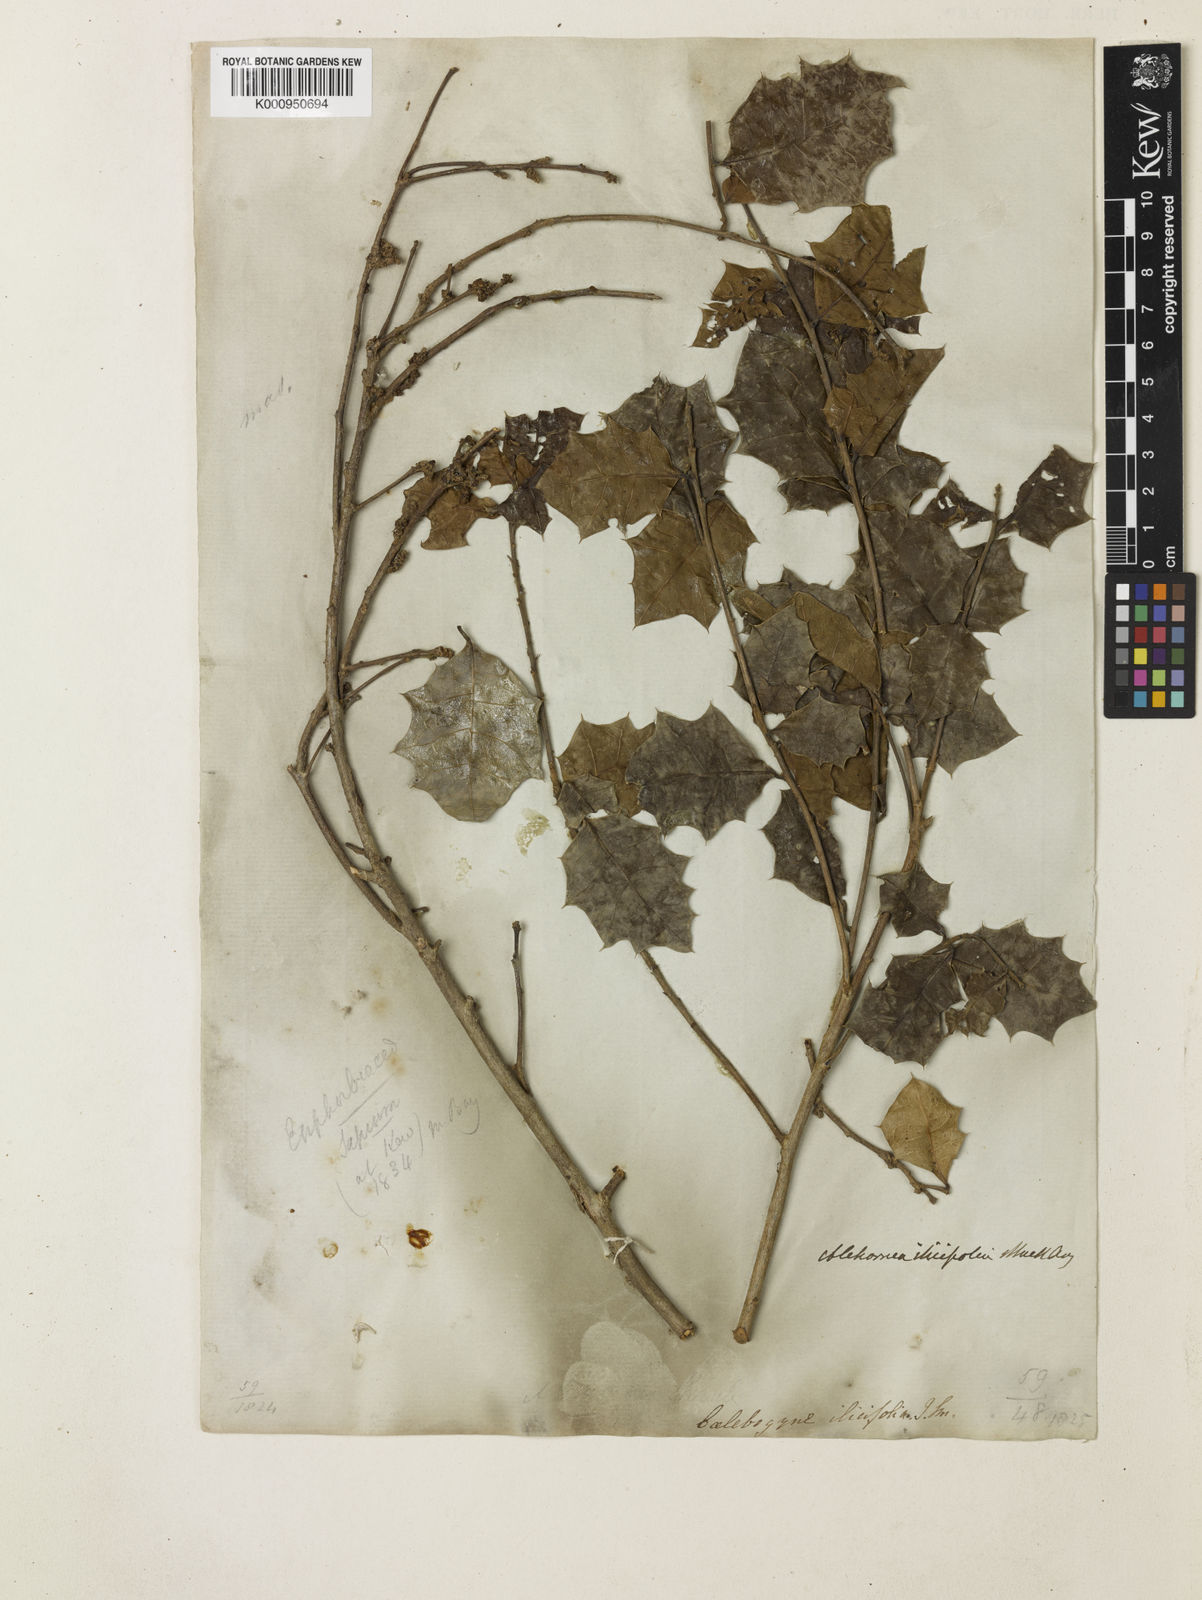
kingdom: Plantae
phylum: Tracheophyta
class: Magnoliopsida
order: Malpighiales
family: Euphorbiaceae
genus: Alchornea
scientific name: Alchornea
